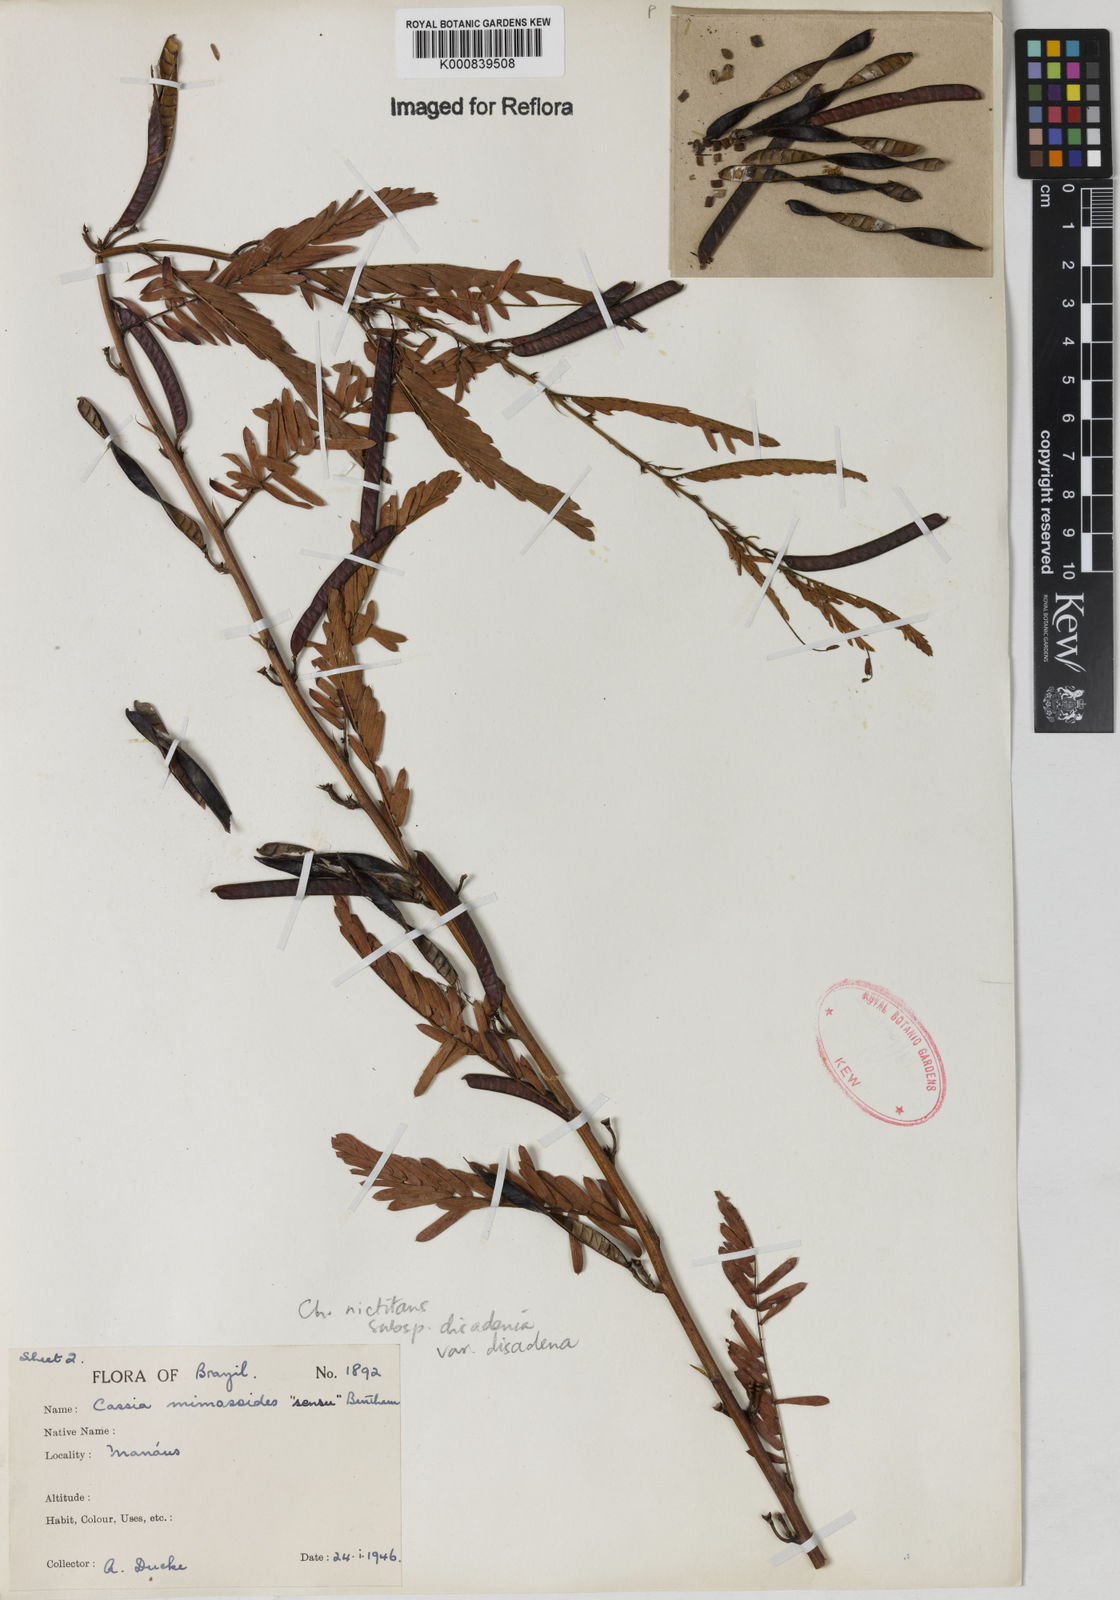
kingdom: Plantae
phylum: Tracheophyta
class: Magnoliopsida
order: Fabales
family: Fabaceae
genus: Chamaecrista
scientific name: Chamaecrista nictitans
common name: Sensitive cassia
